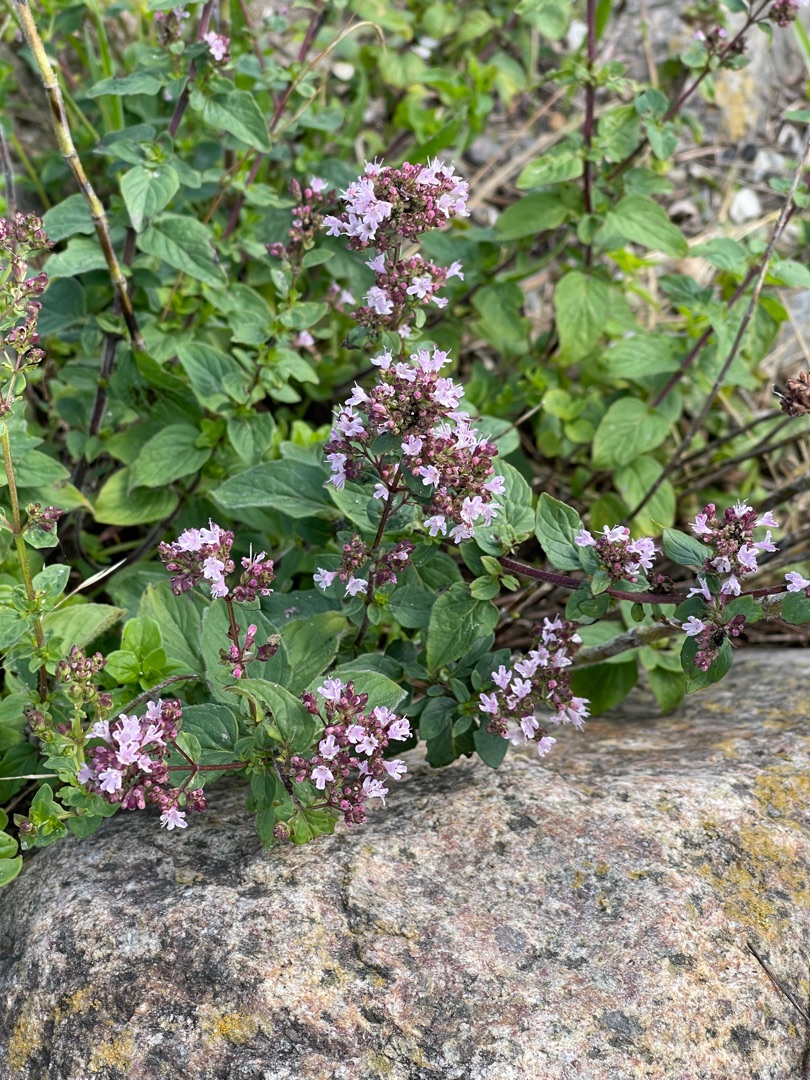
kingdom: Plantae
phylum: Tracheophyta
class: Magnoliopsida
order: Lamiales
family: Lamiaceae
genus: Origanum
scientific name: Origanum vulgare
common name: Merian
